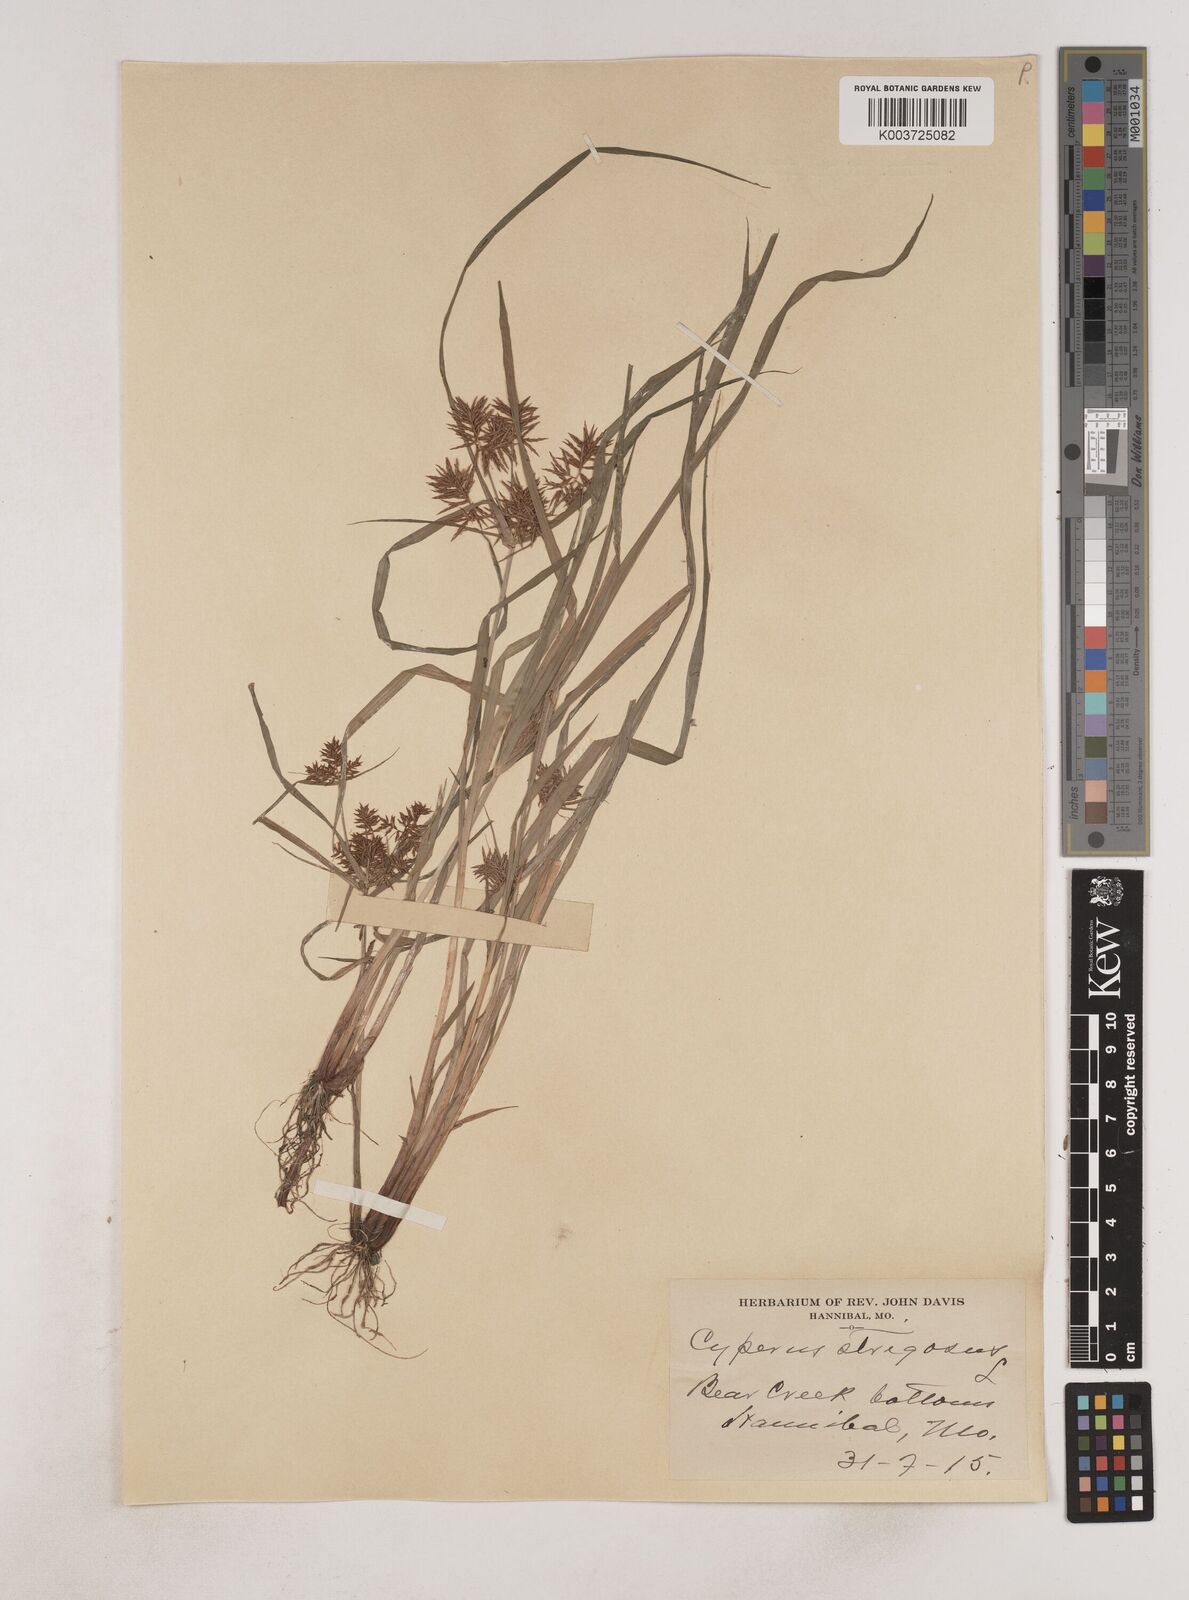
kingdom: Plantae
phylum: Tracheophyta
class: Liliopsida
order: Poales
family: Cyperaceae
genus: Cyperus
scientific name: Cyperus strigosus
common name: False nutsedge
